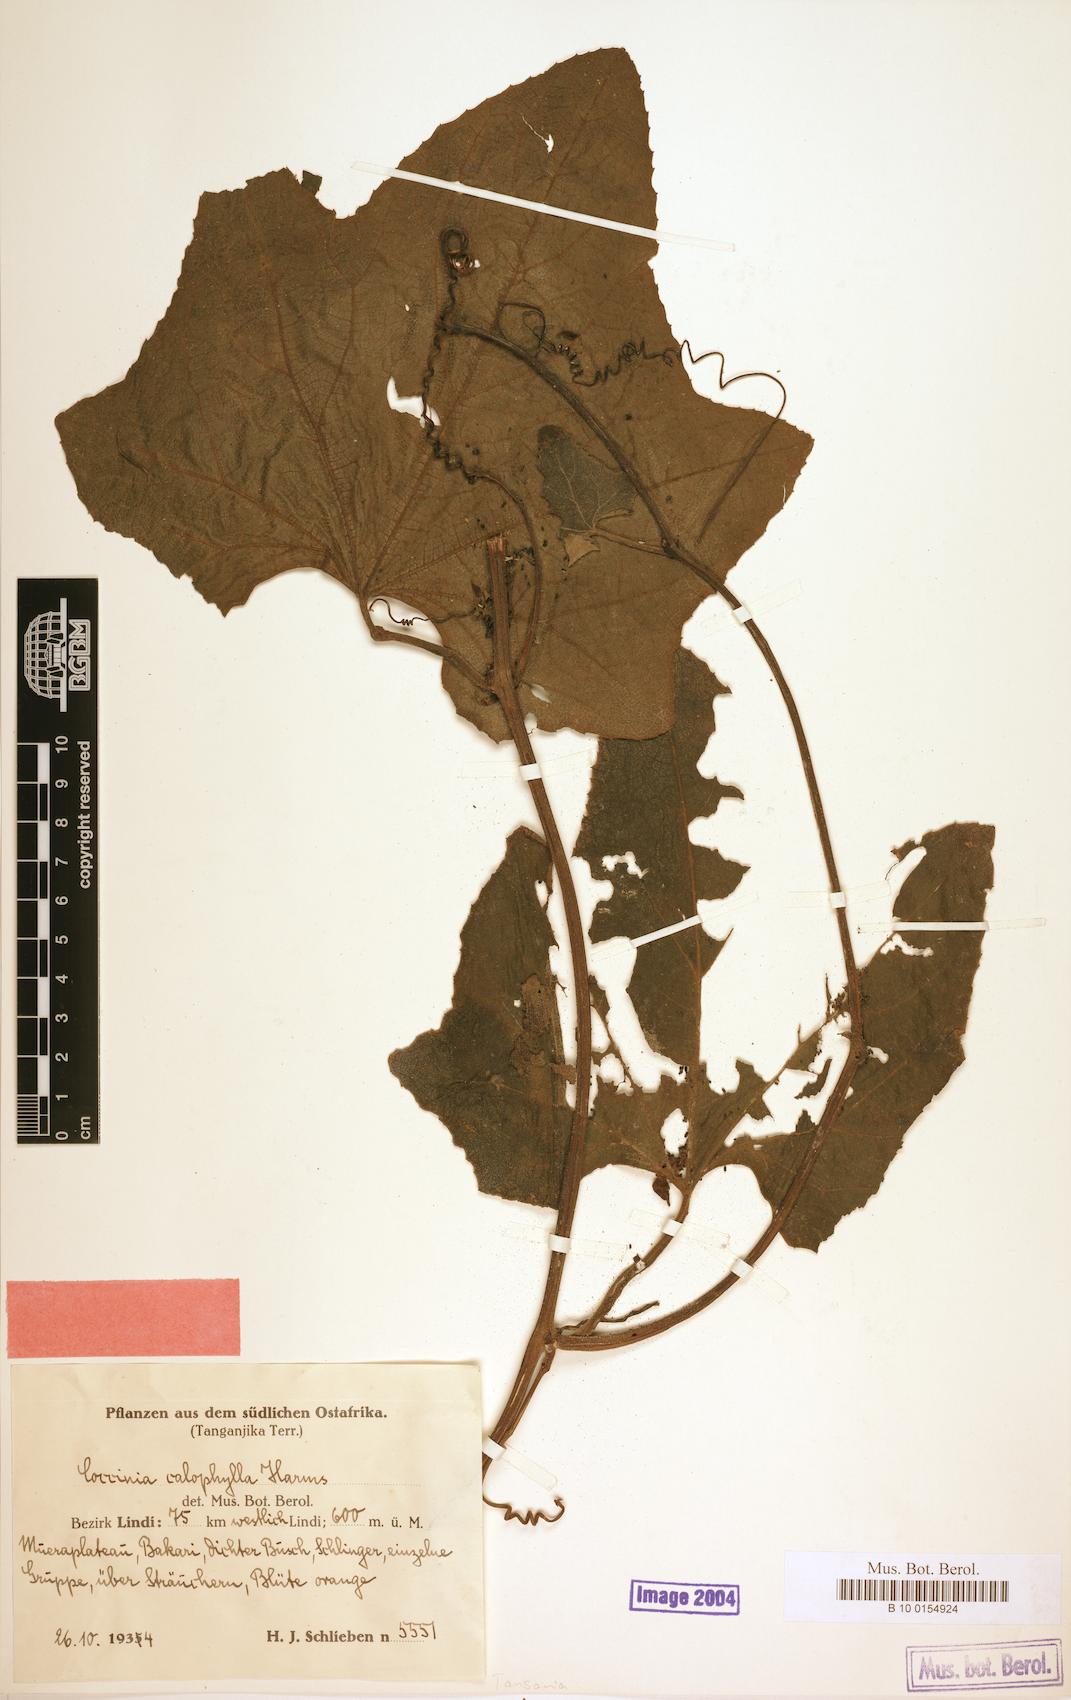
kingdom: Plantae
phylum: Tracheophyta
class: Magnoliopsida
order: Cucurbitales
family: Cucurbitaceae
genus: Coccinia
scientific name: Coccinia schliebenii
